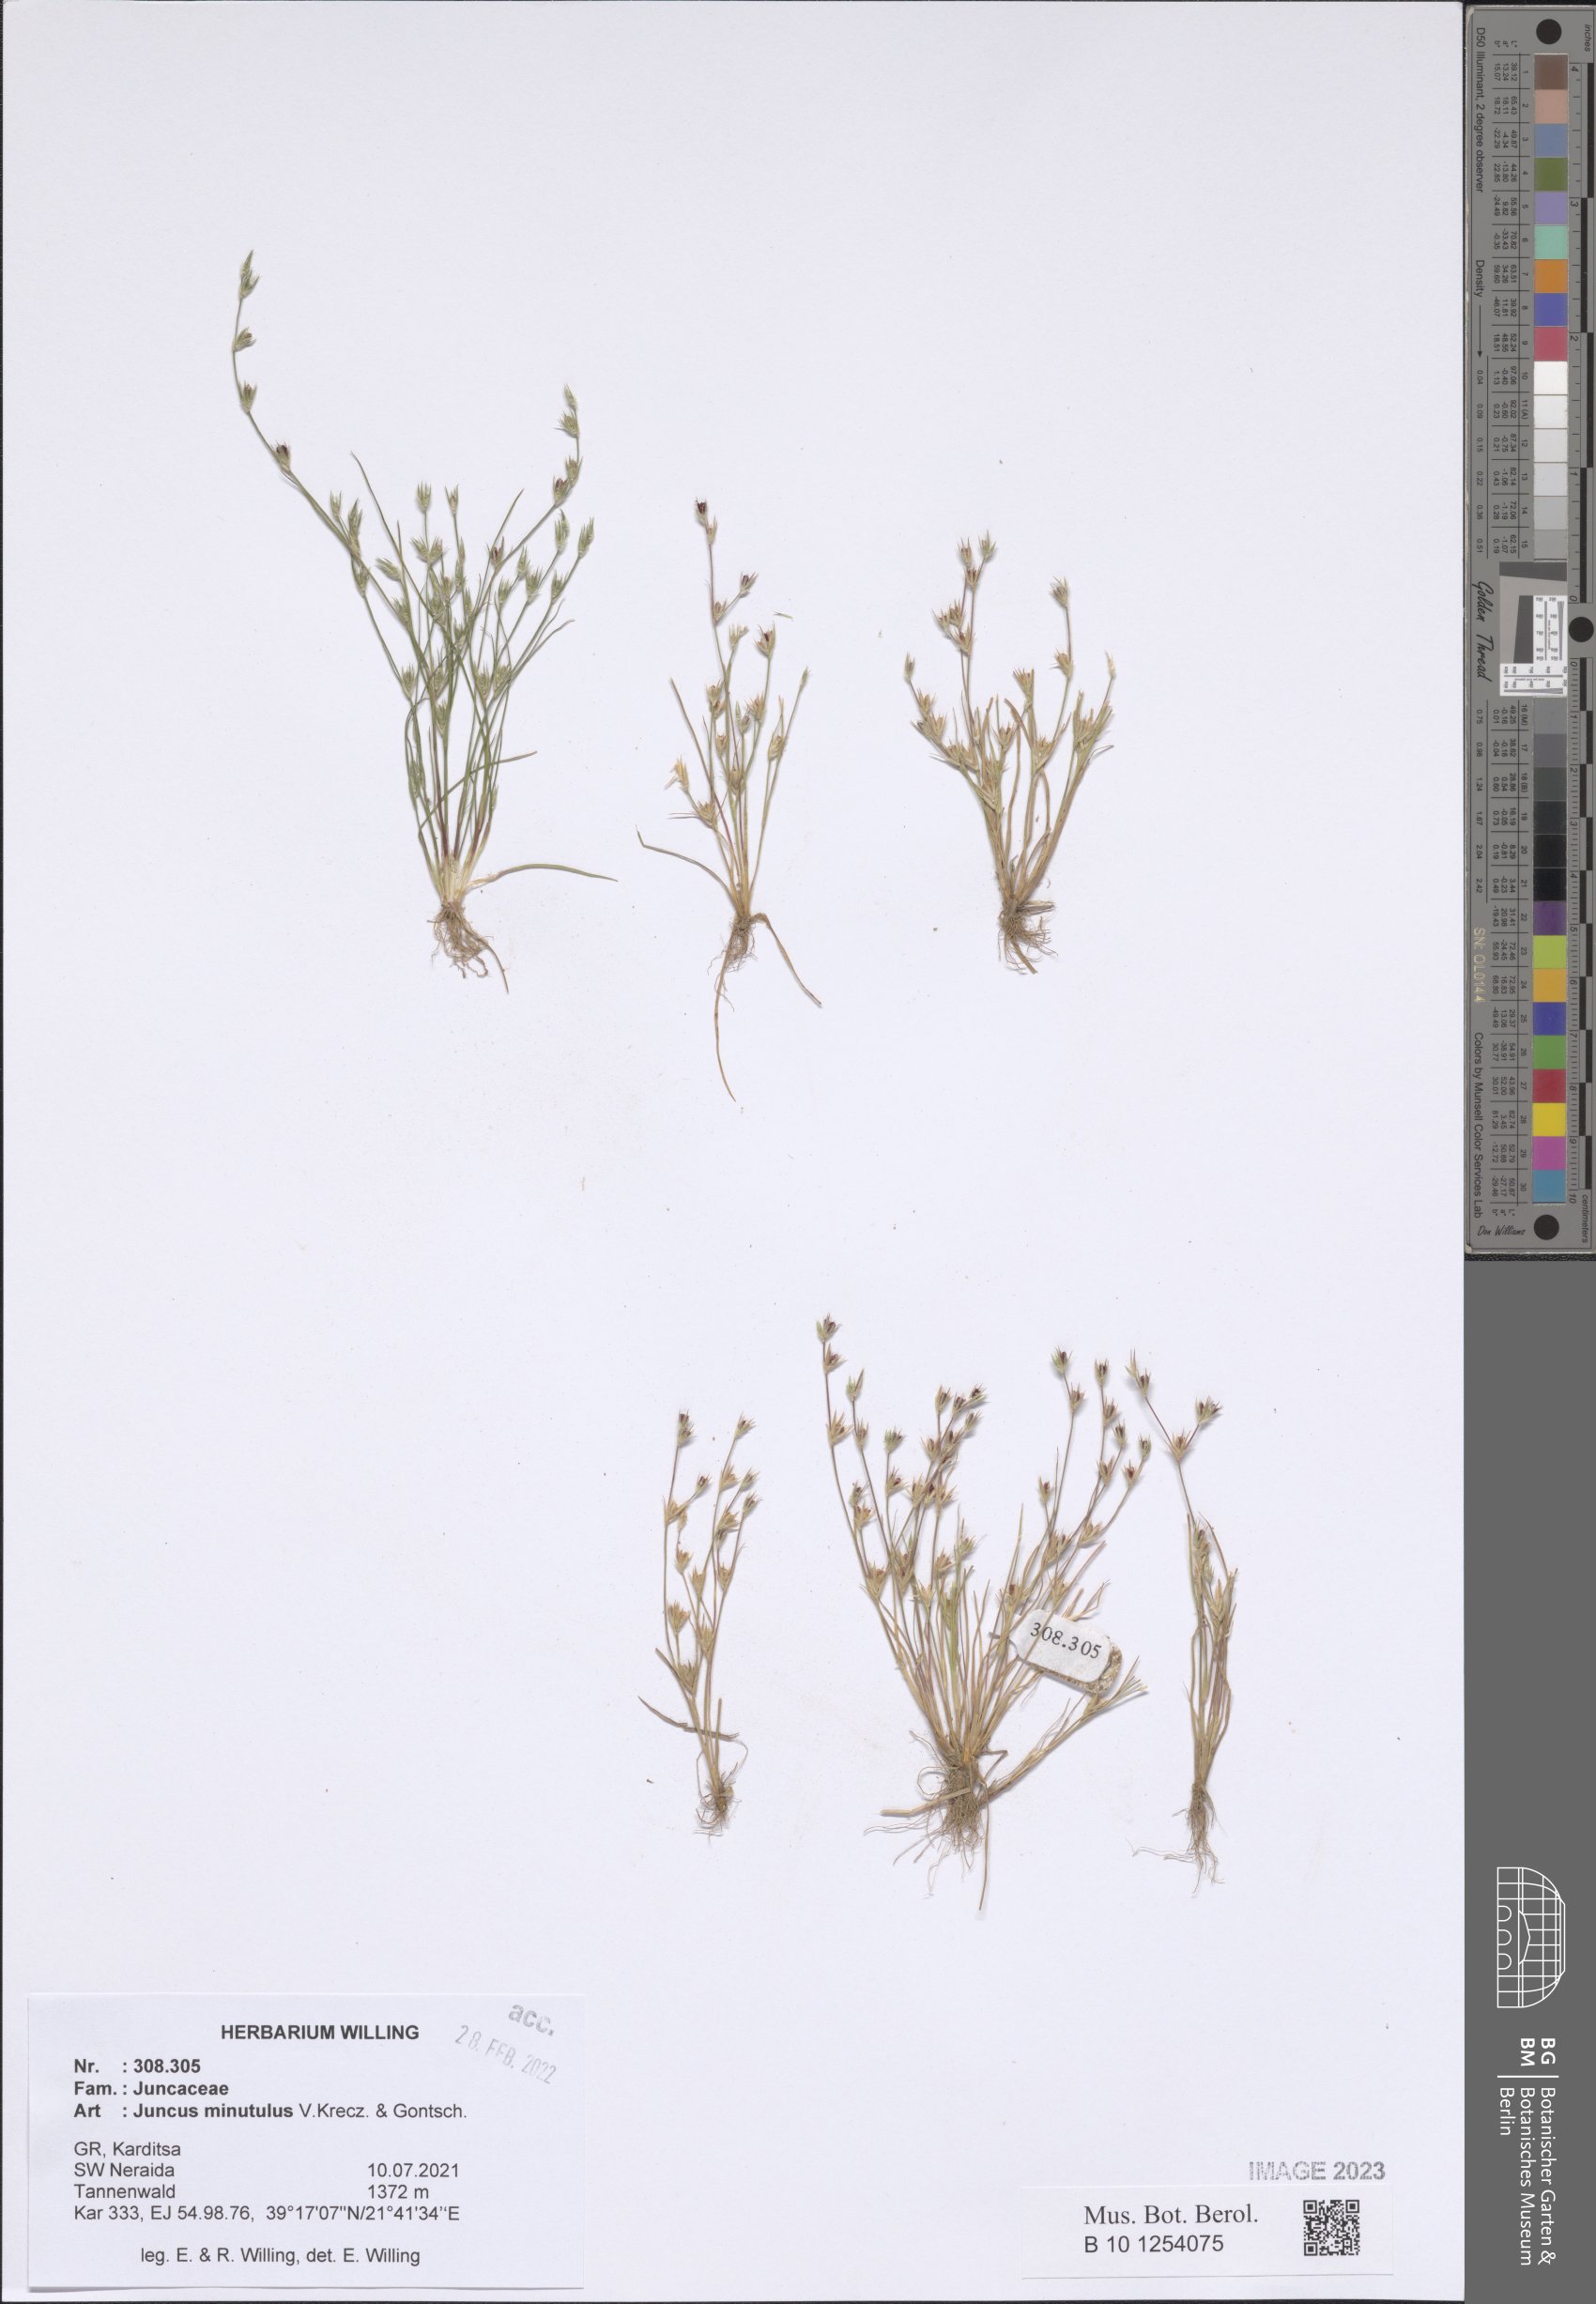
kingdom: Plantae
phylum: Tracheophyta
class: Liliopsida
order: Poales
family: Juncaceae
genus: Juncus
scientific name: Juncus minutulus
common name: Minute rush
